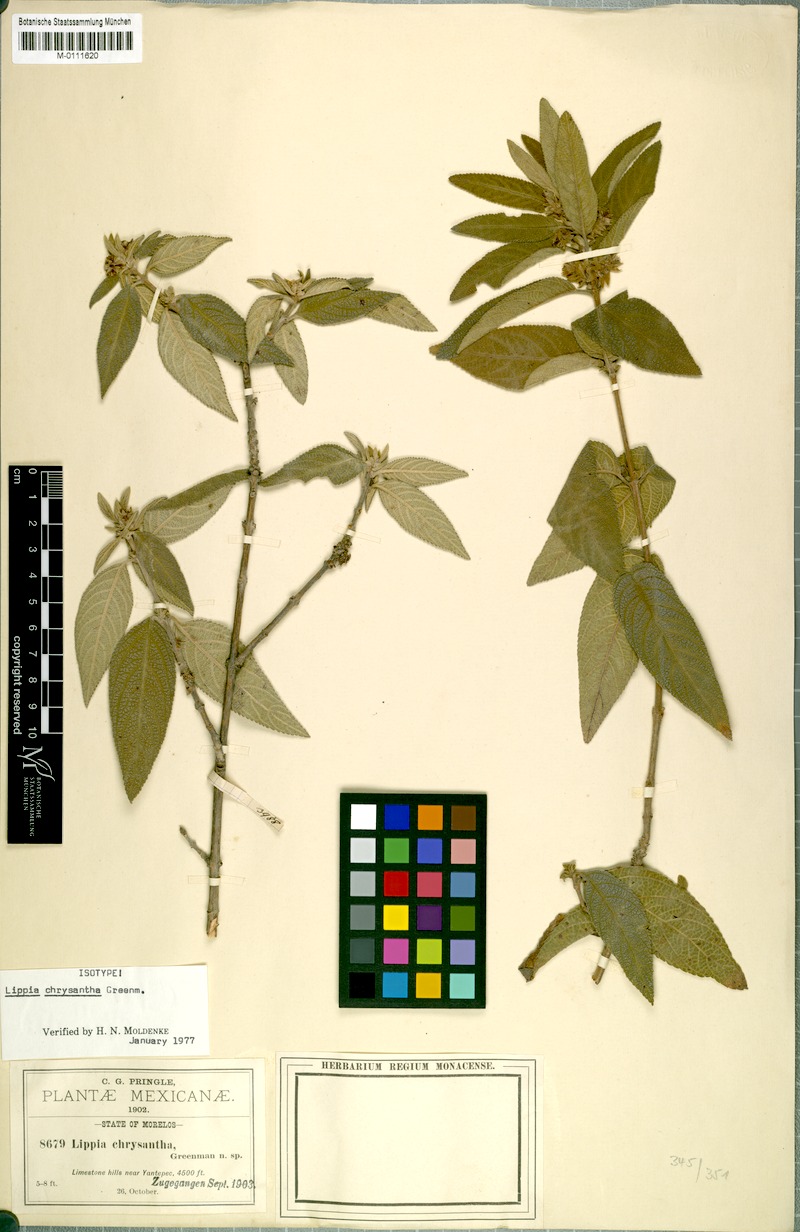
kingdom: Plantae
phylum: Tracheophyta
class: Magnoliopsida
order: Lamiales
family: Verbenaceae
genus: Lippia
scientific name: Lippia chrysantha
